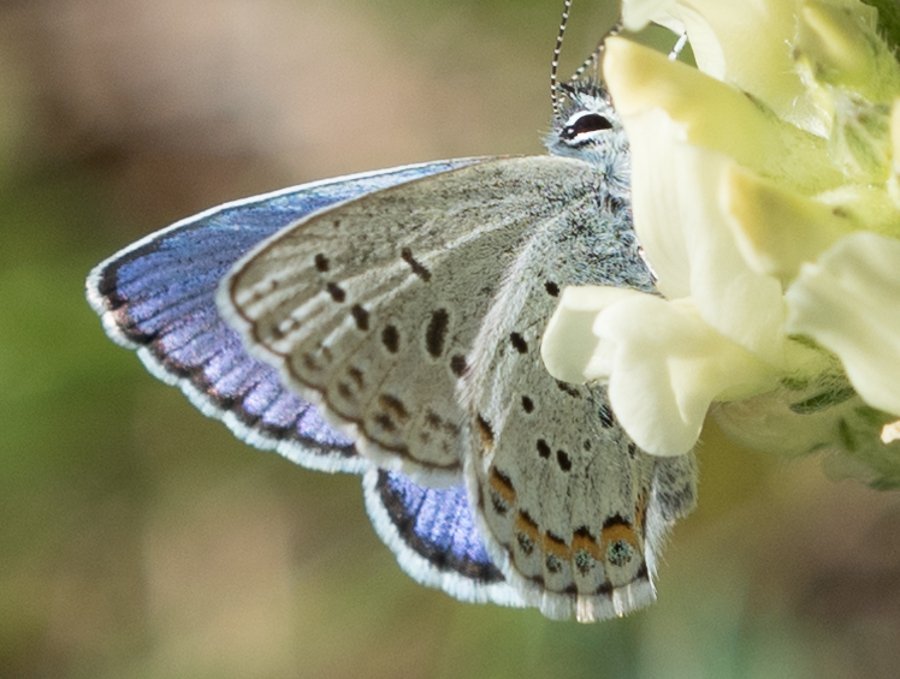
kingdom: Animalia
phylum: Arthropoda
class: Insecta
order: Lepidoptera
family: Lycaenidae
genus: Lycaeides
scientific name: Lycaeides idas
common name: Northern Blue
